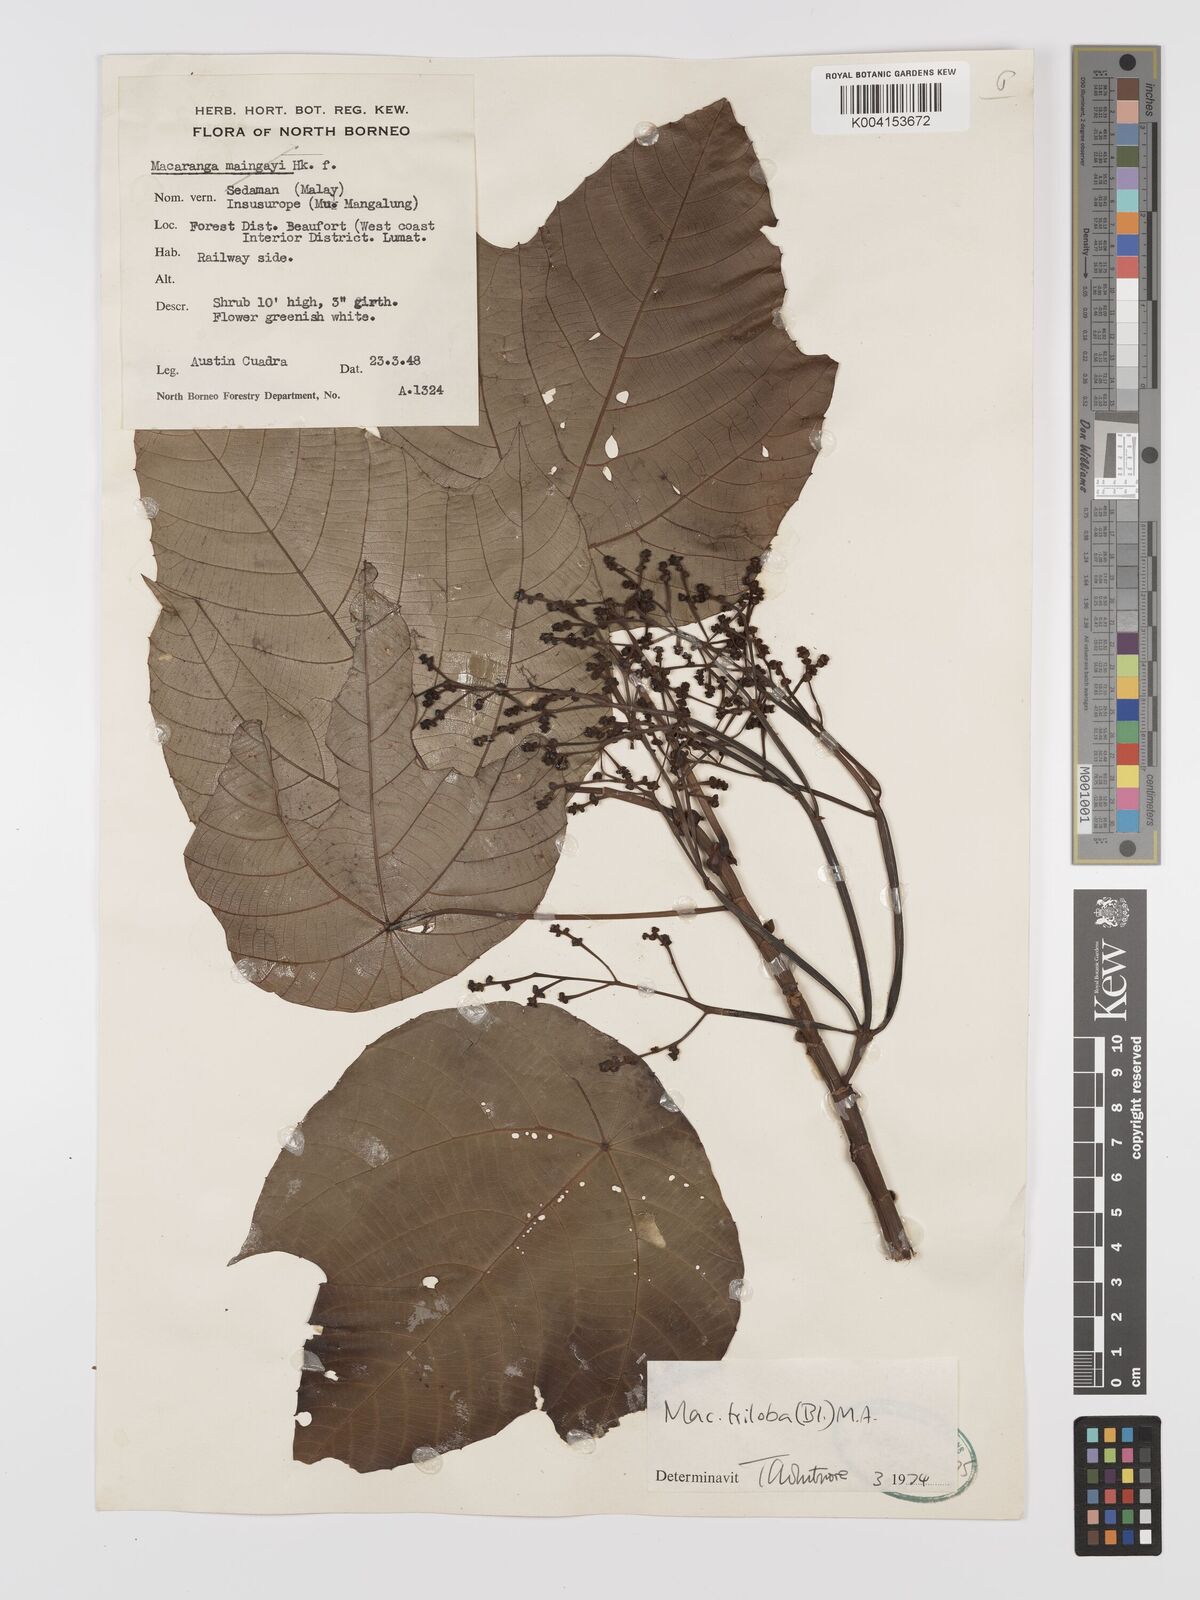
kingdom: Plantae
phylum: Tracheophyta
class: Magnoliopsida
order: Malpighiales
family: Euphorbiaceae
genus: Macaranga
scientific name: Macaranga triloba
